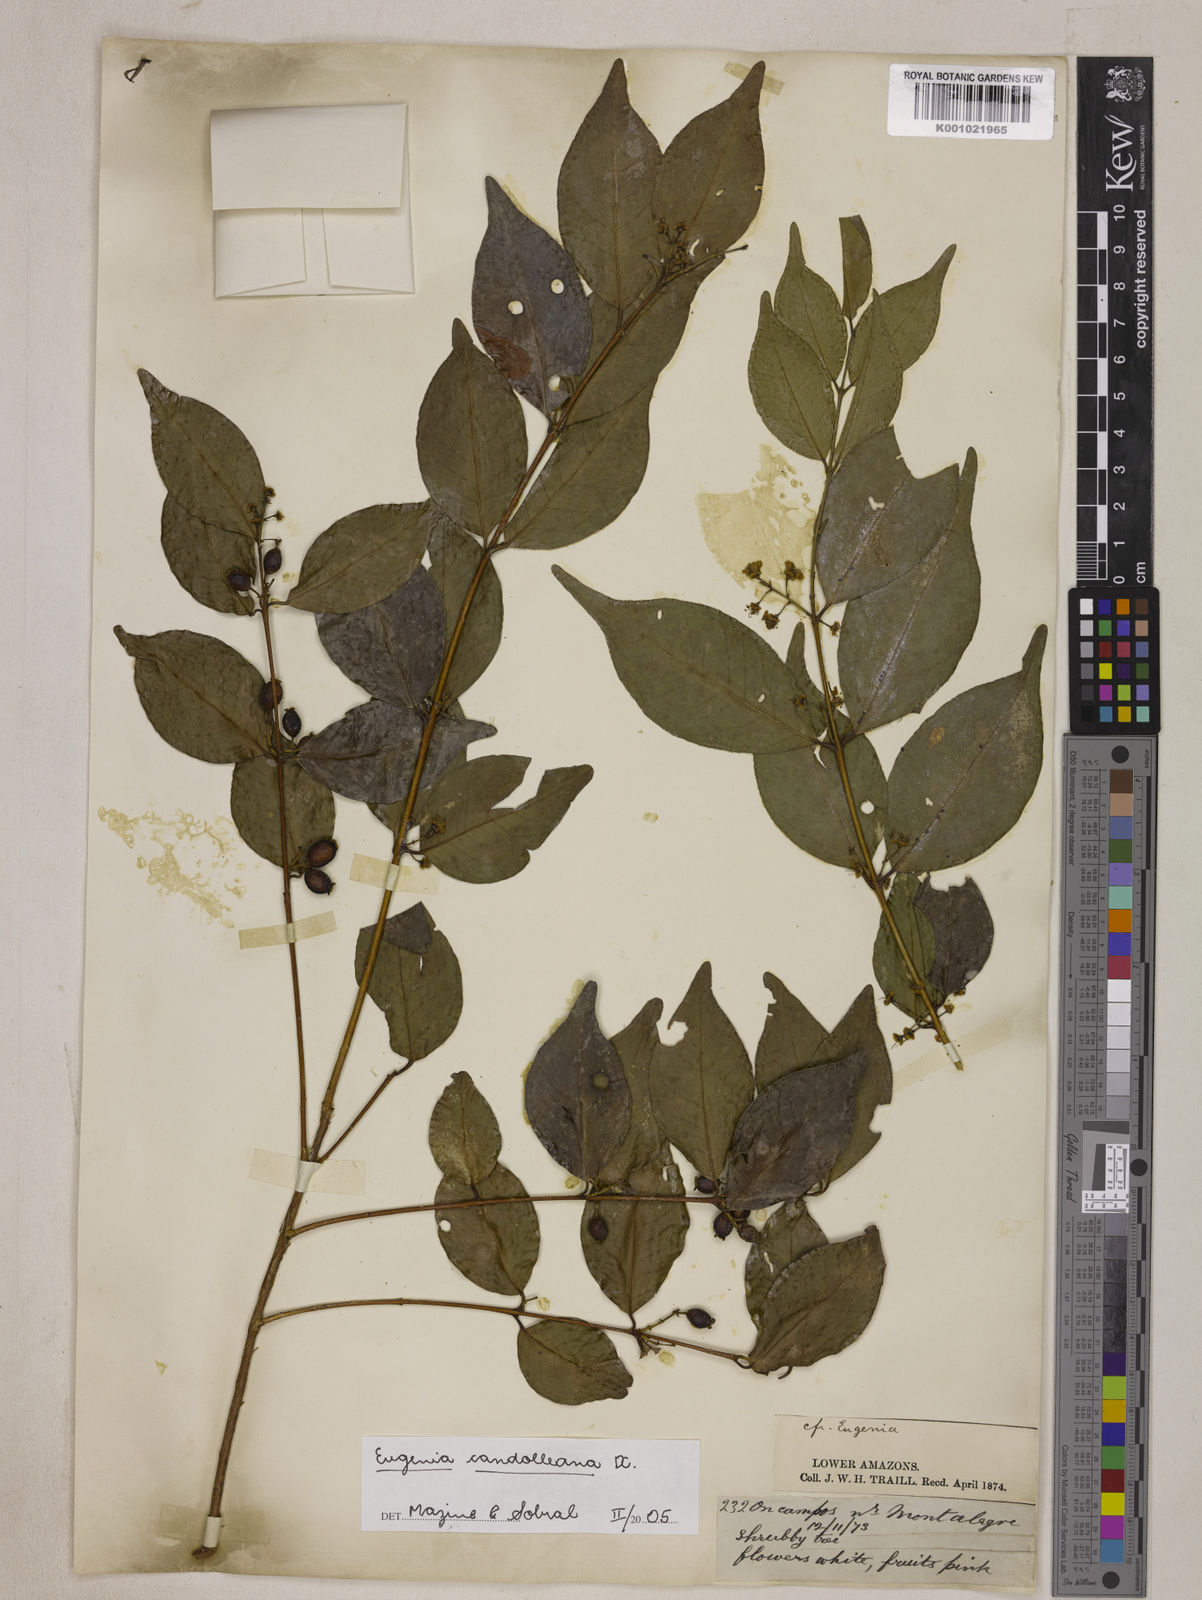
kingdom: Plantae
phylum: Tracheophyta
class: Magnoliopsida
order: Myrtales
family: Myrtaceae
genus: Eugenia
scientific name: Eugenia candolleana
